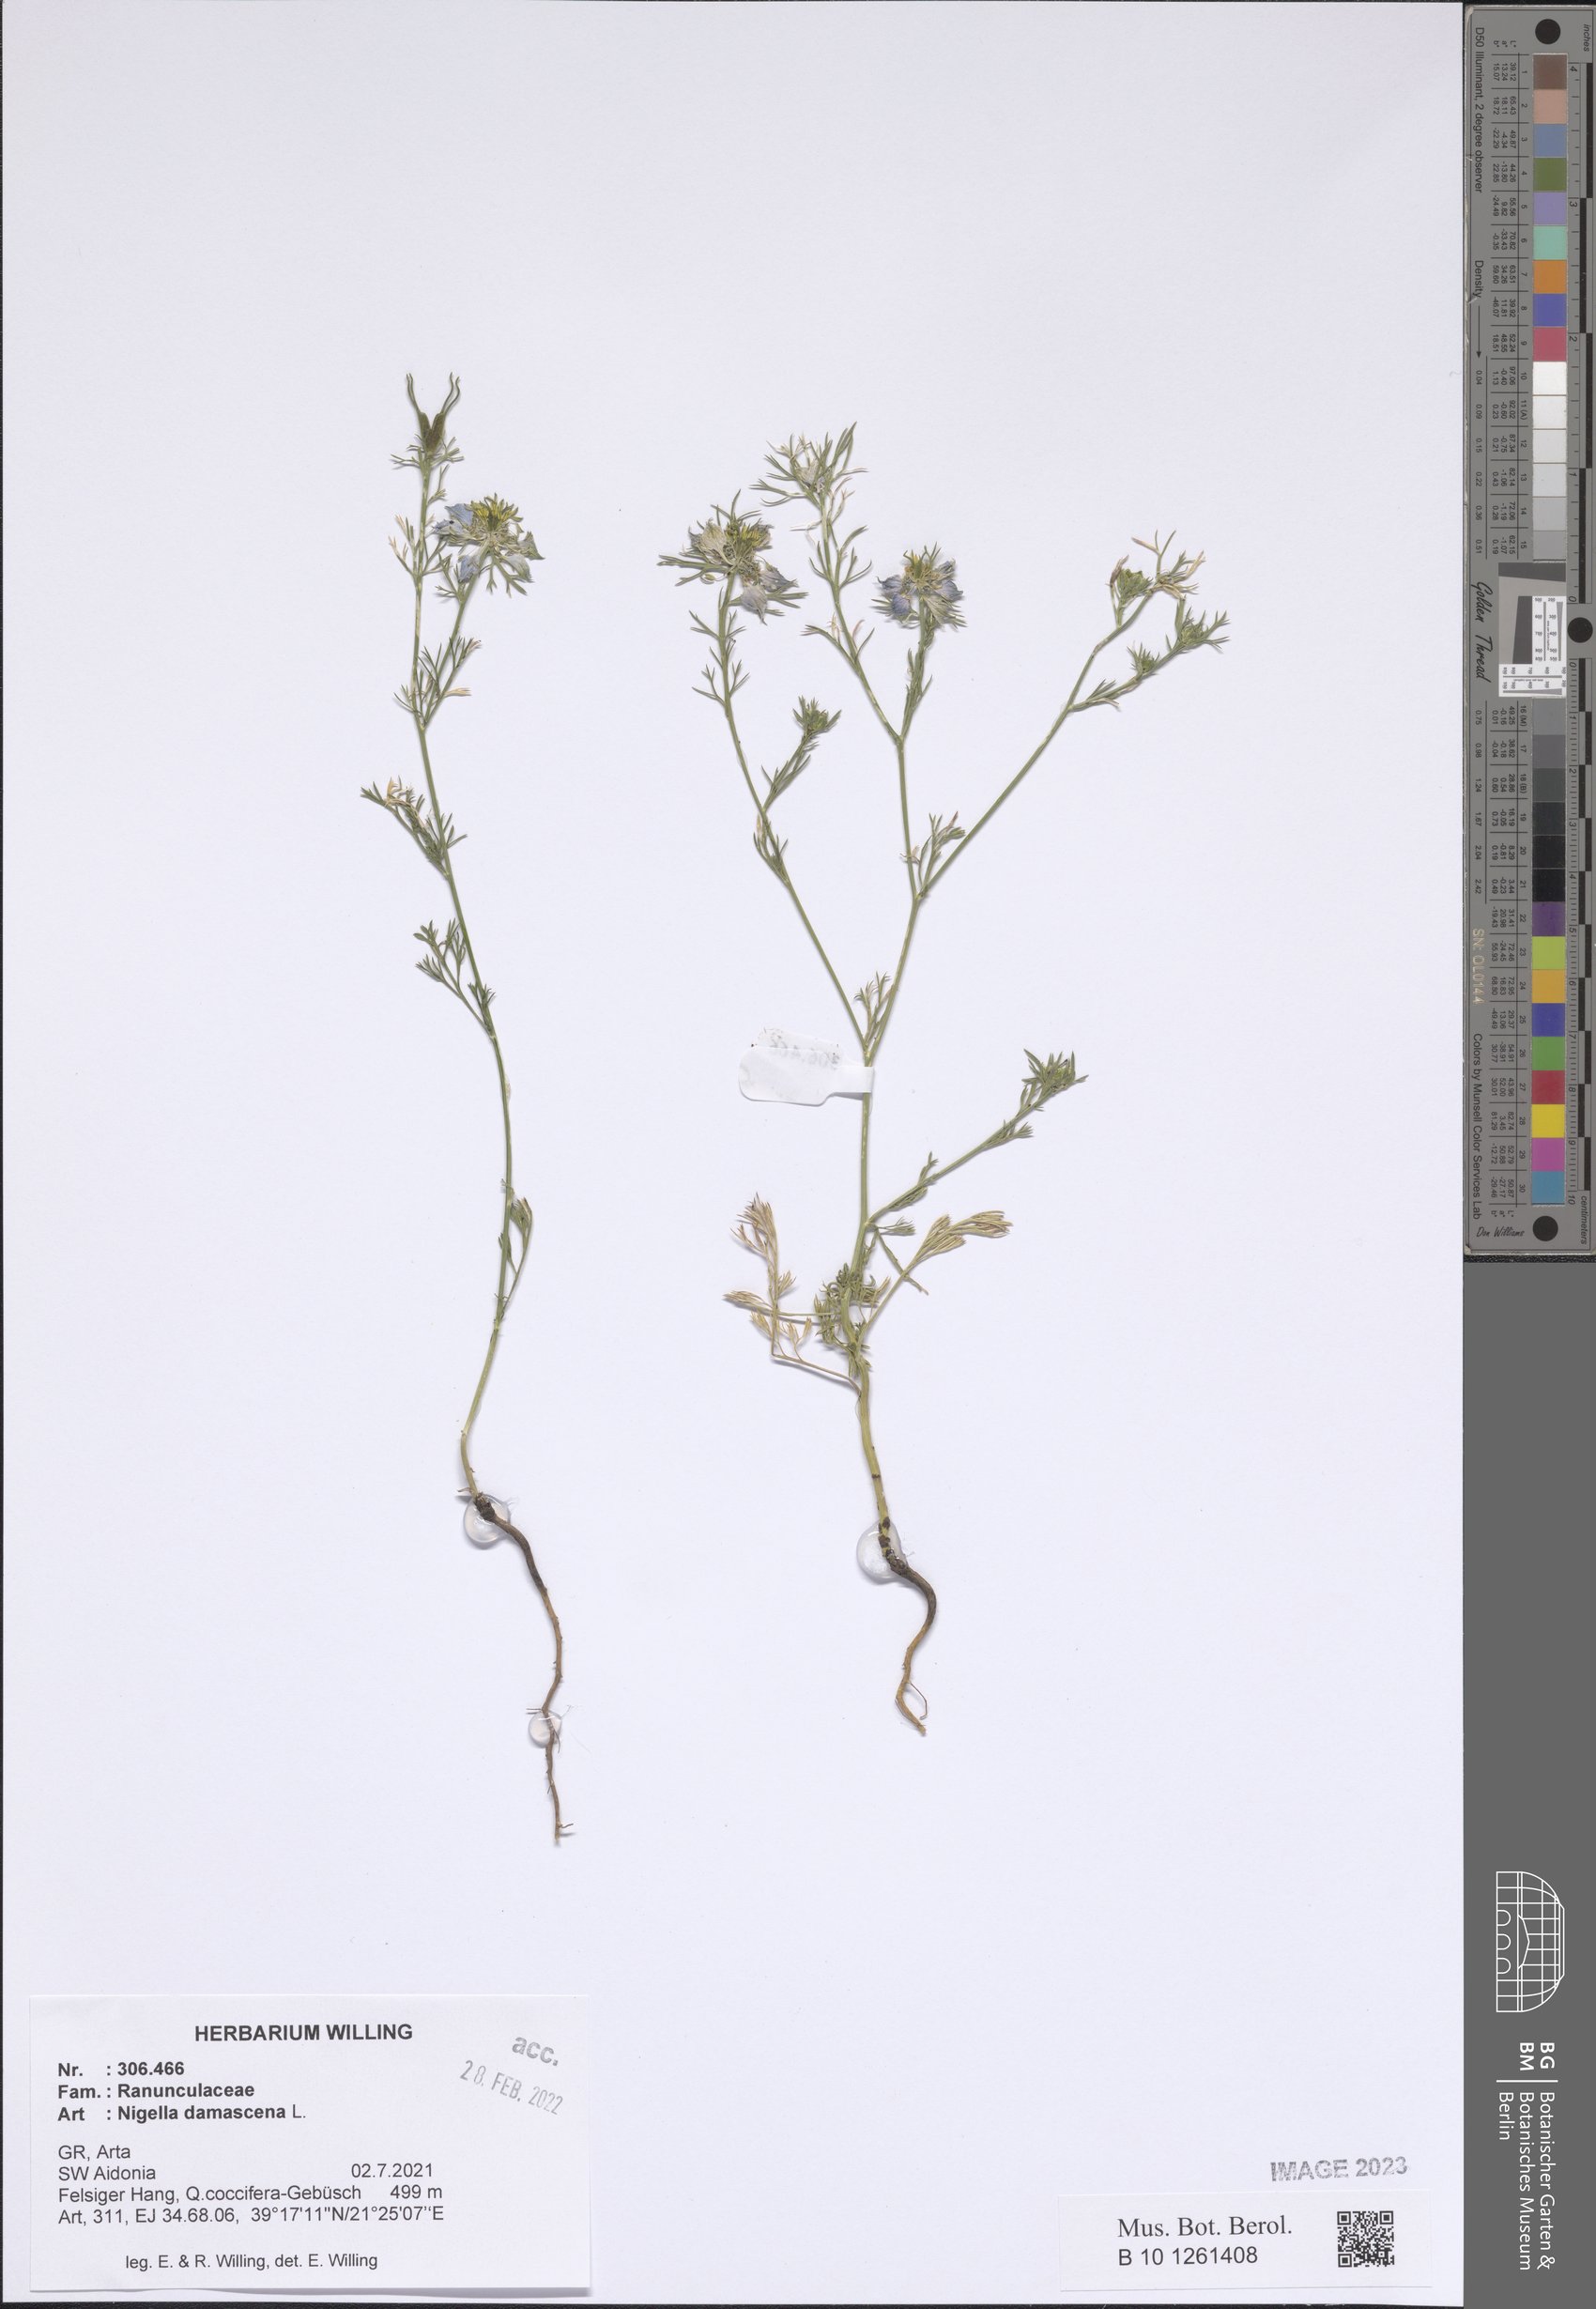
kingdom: Plantae
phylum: Tracheophyta
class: Magnoliopsida
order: Ranunculales
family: Ranunculaceae
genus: Nigella
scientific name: Nigella damascena
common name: Love-in-a-mist
